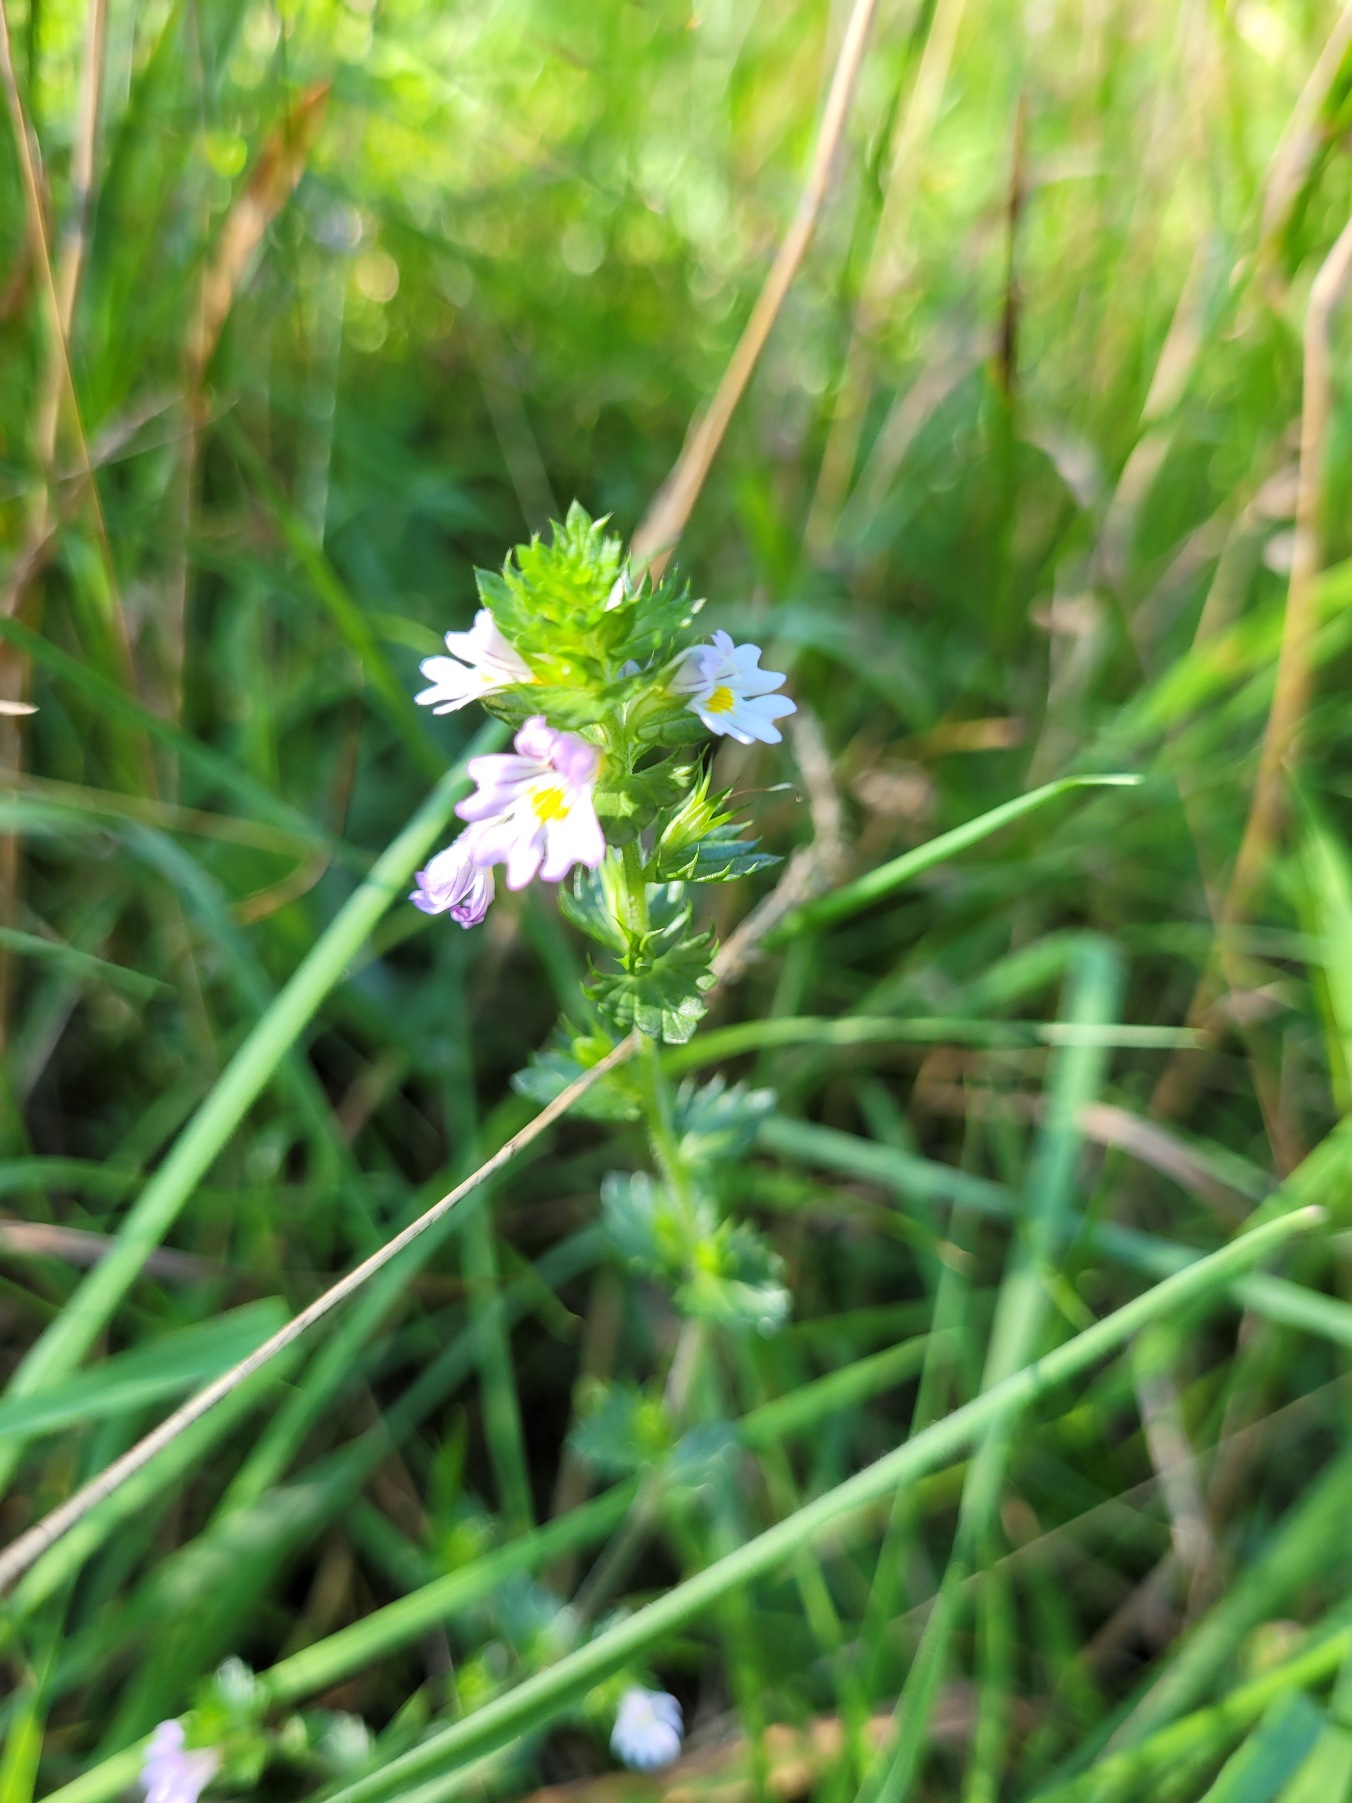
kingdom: Plantae
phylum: Tracheophyta
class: Magnoliopsida
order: Lamiales
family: Orobanchaceae
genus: Euphrasia
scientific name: Euphrasia stricta
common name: Spids øjentrøst
